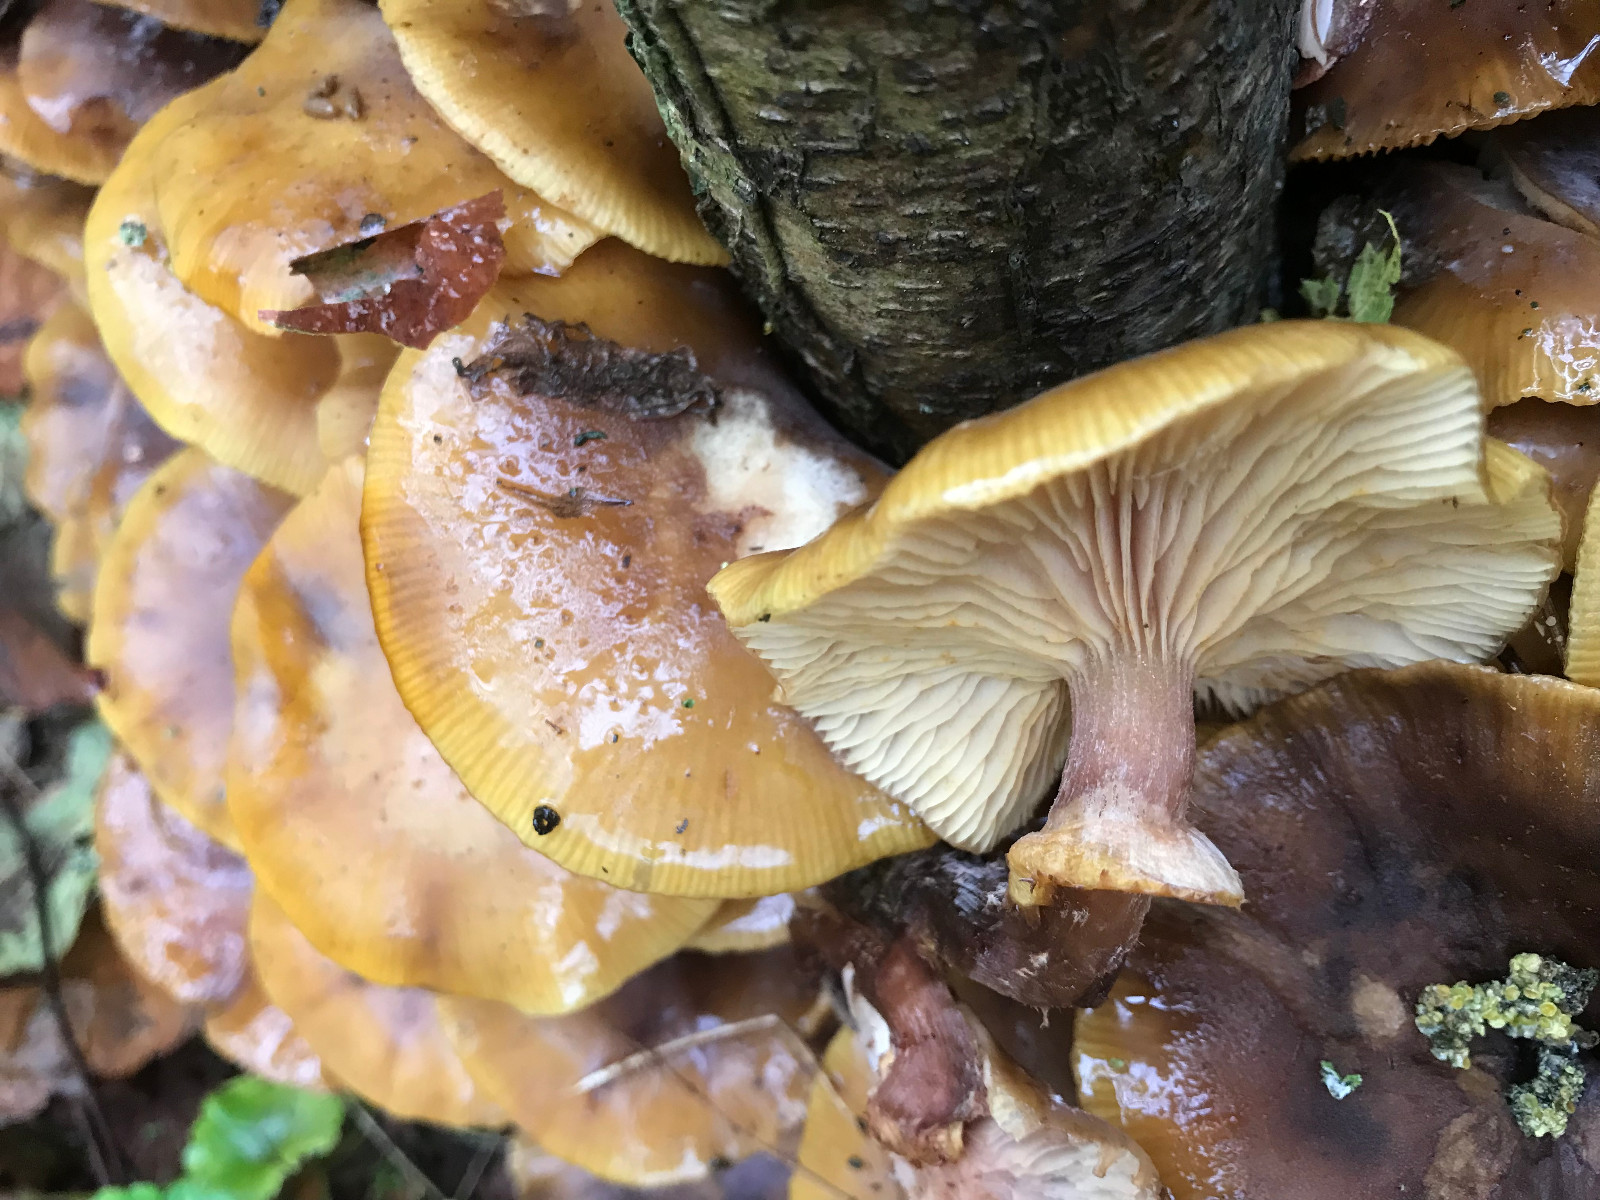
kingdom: Fungi
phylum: Basidiomycota
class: Agaricomycetes
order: Agaricales
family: Physalacriaceae
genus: Armillaria
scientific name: Armillaria mellea
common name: ægte honningsvamp
